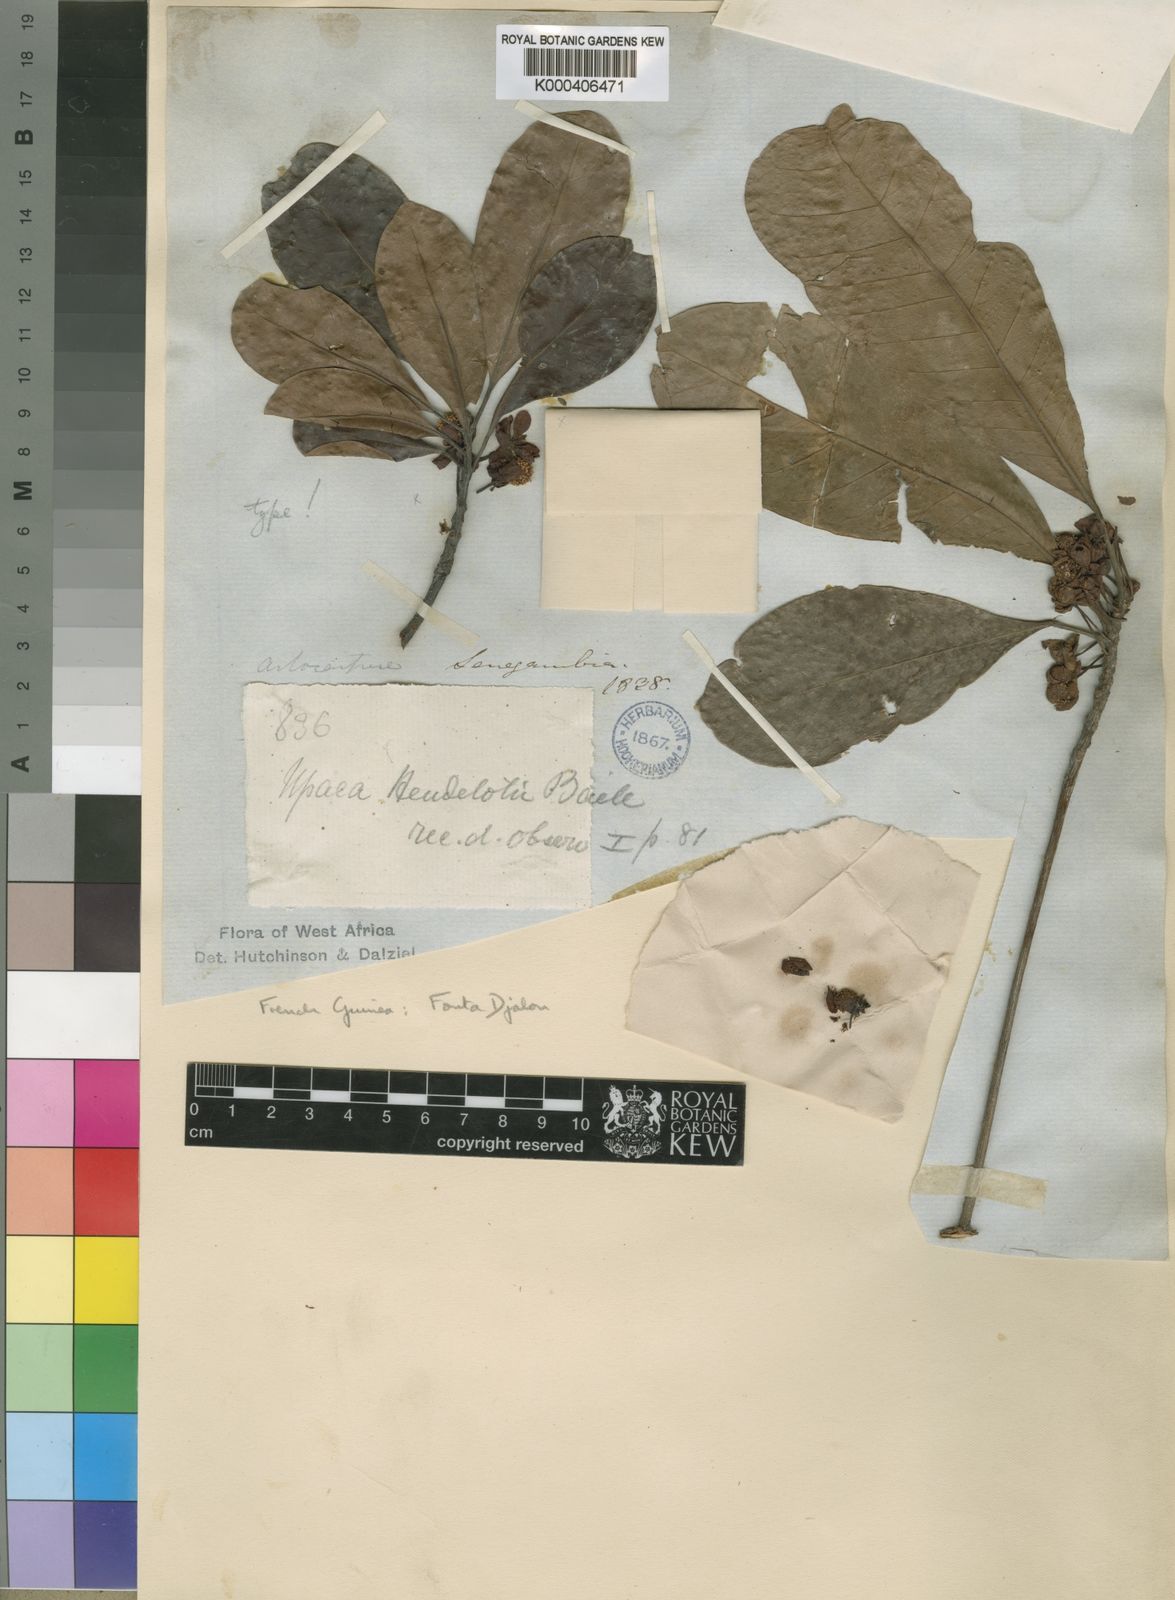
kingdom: Plantae
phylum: Tracheophyta
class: Magnoliopsida
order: Malpighiales
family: Phyllanthaceae
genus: Uapaca
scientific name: Uapaca heudelotii
